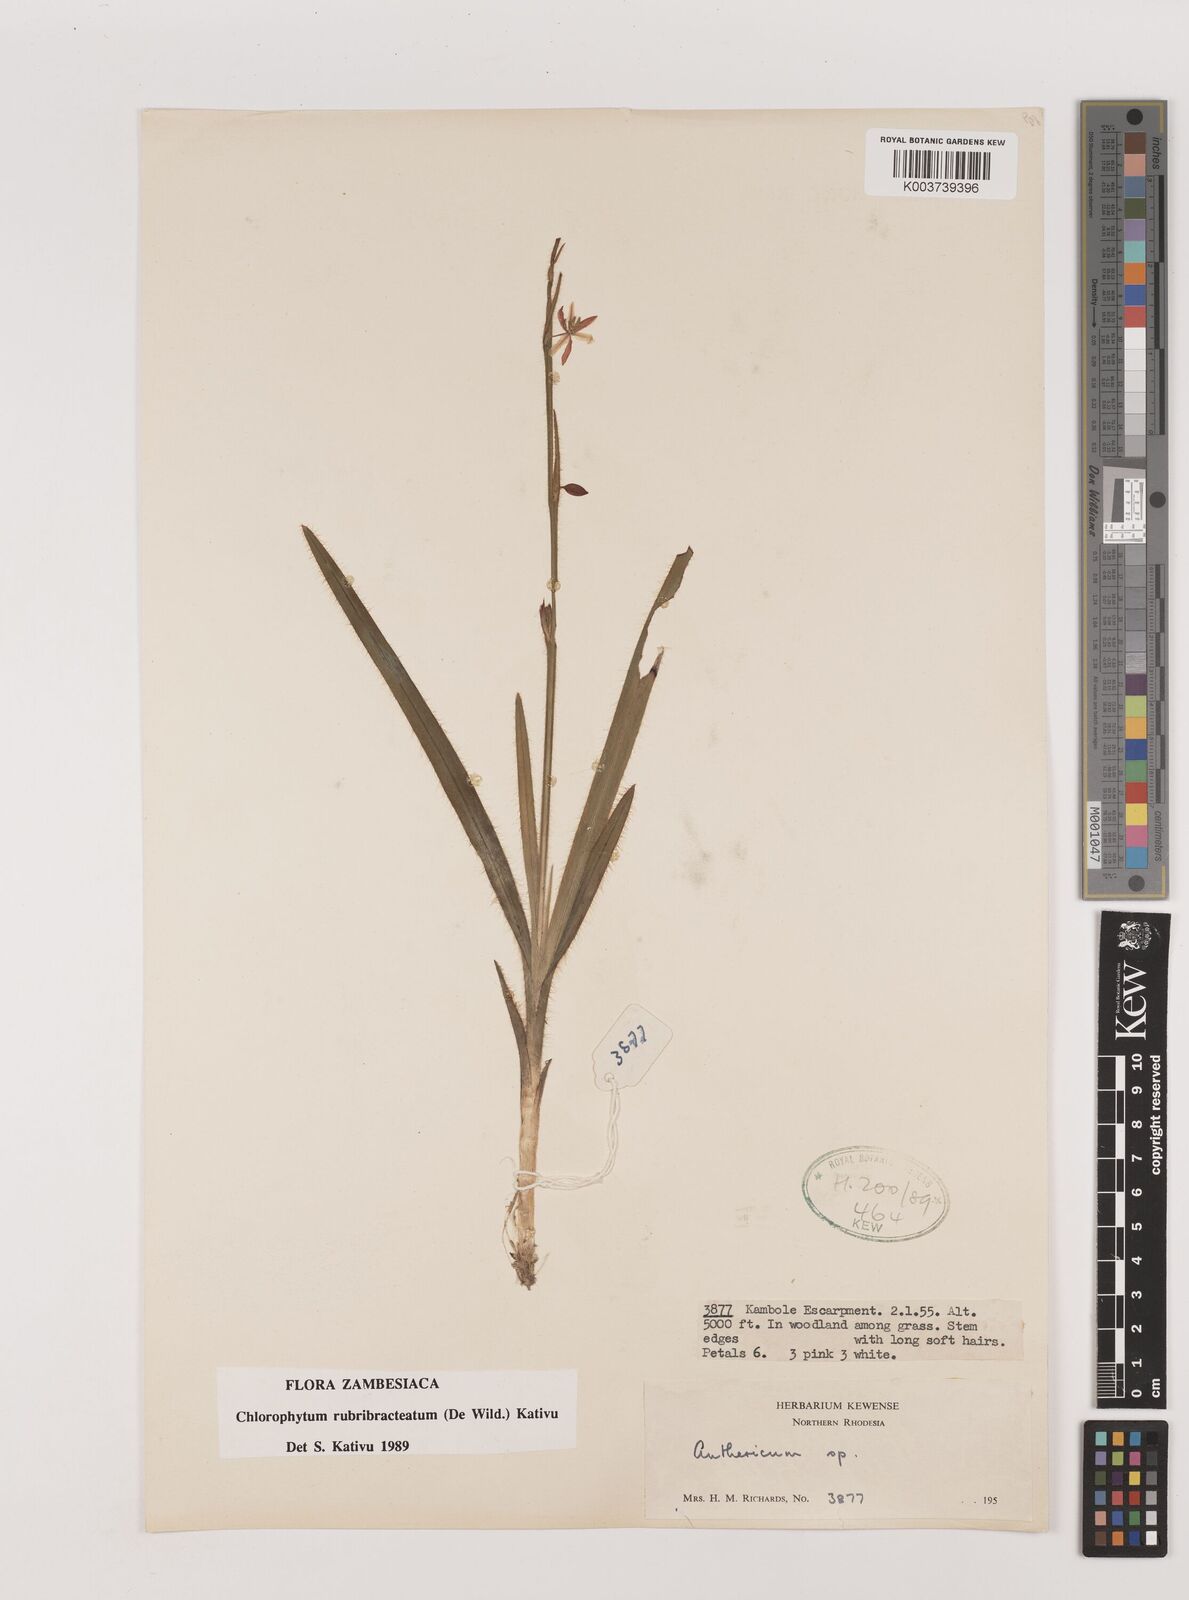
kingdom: Plantae
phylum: Tracheophyta
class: Liliopsida
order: Asparagales
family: Asparagaceae
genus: Chlorophytum
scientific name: Chlorophytum rubribracteatum
